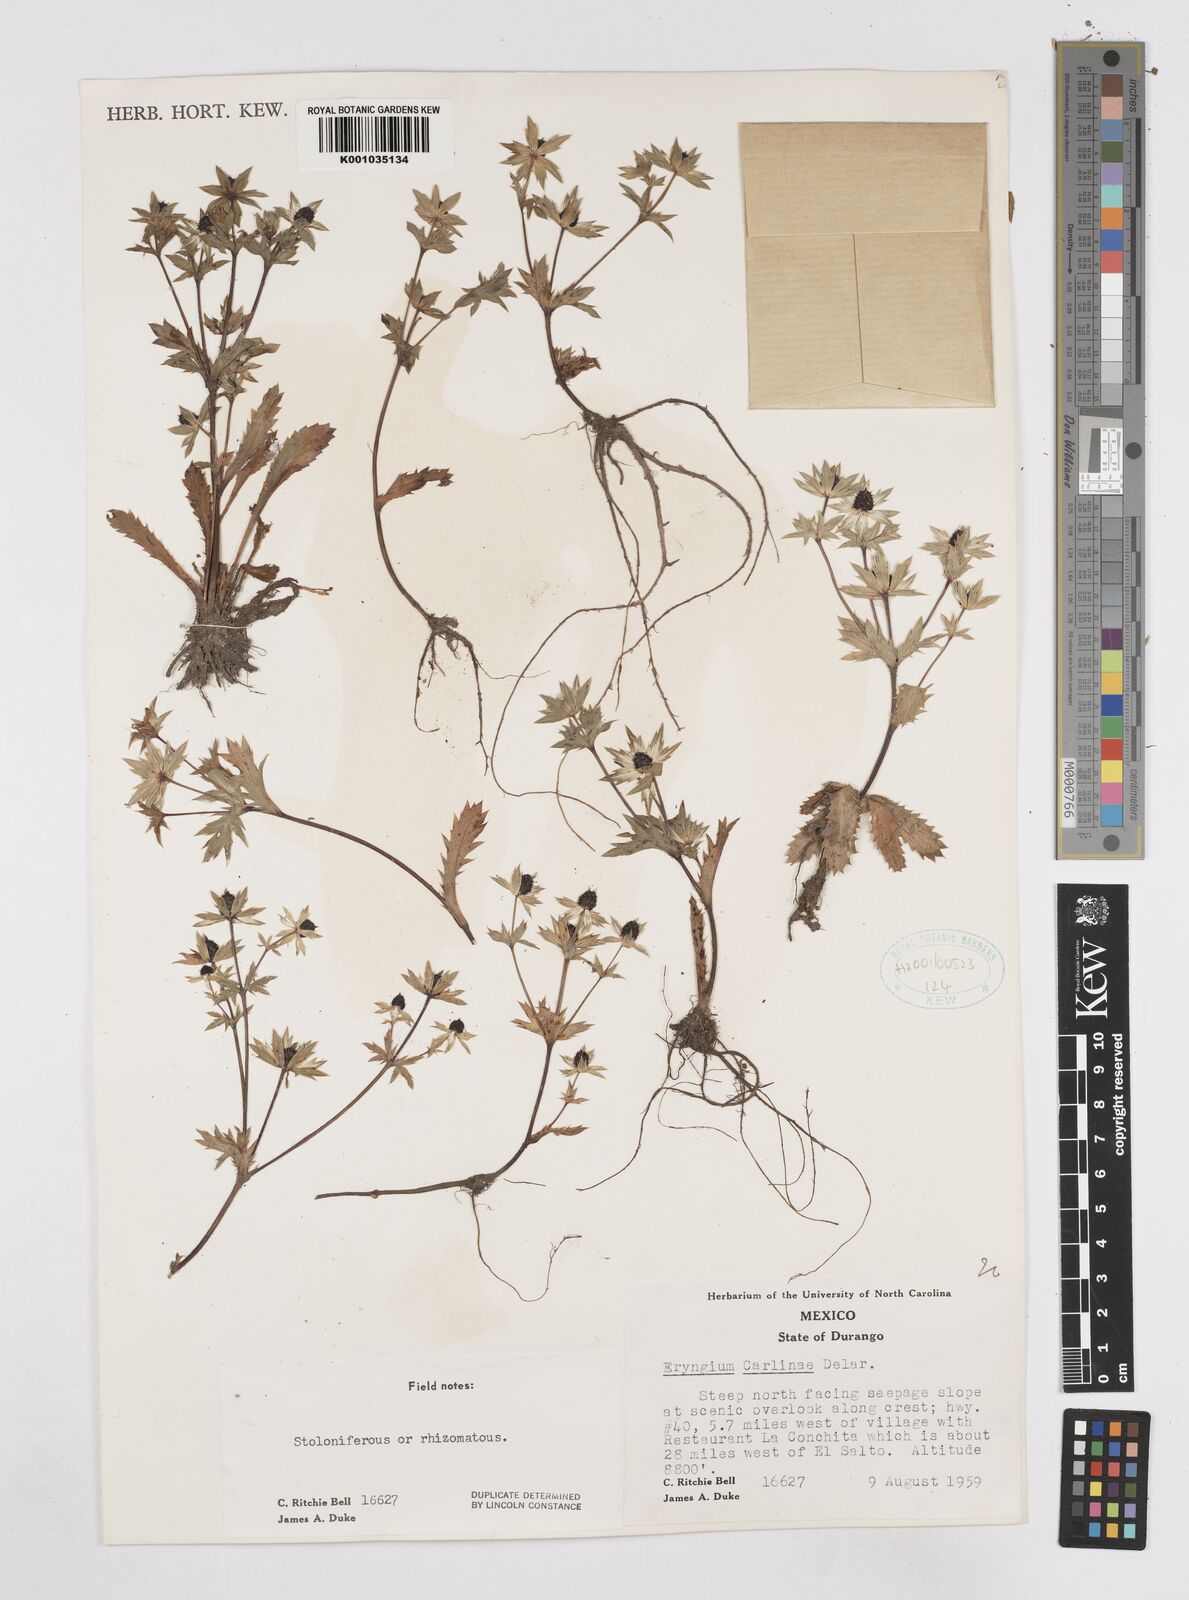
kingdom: Plantae
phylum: Tracheophyta
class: Magnoliopsida
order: Apiales
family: Apiaceae
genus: Eryngium
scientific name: Eryngium carlinae
